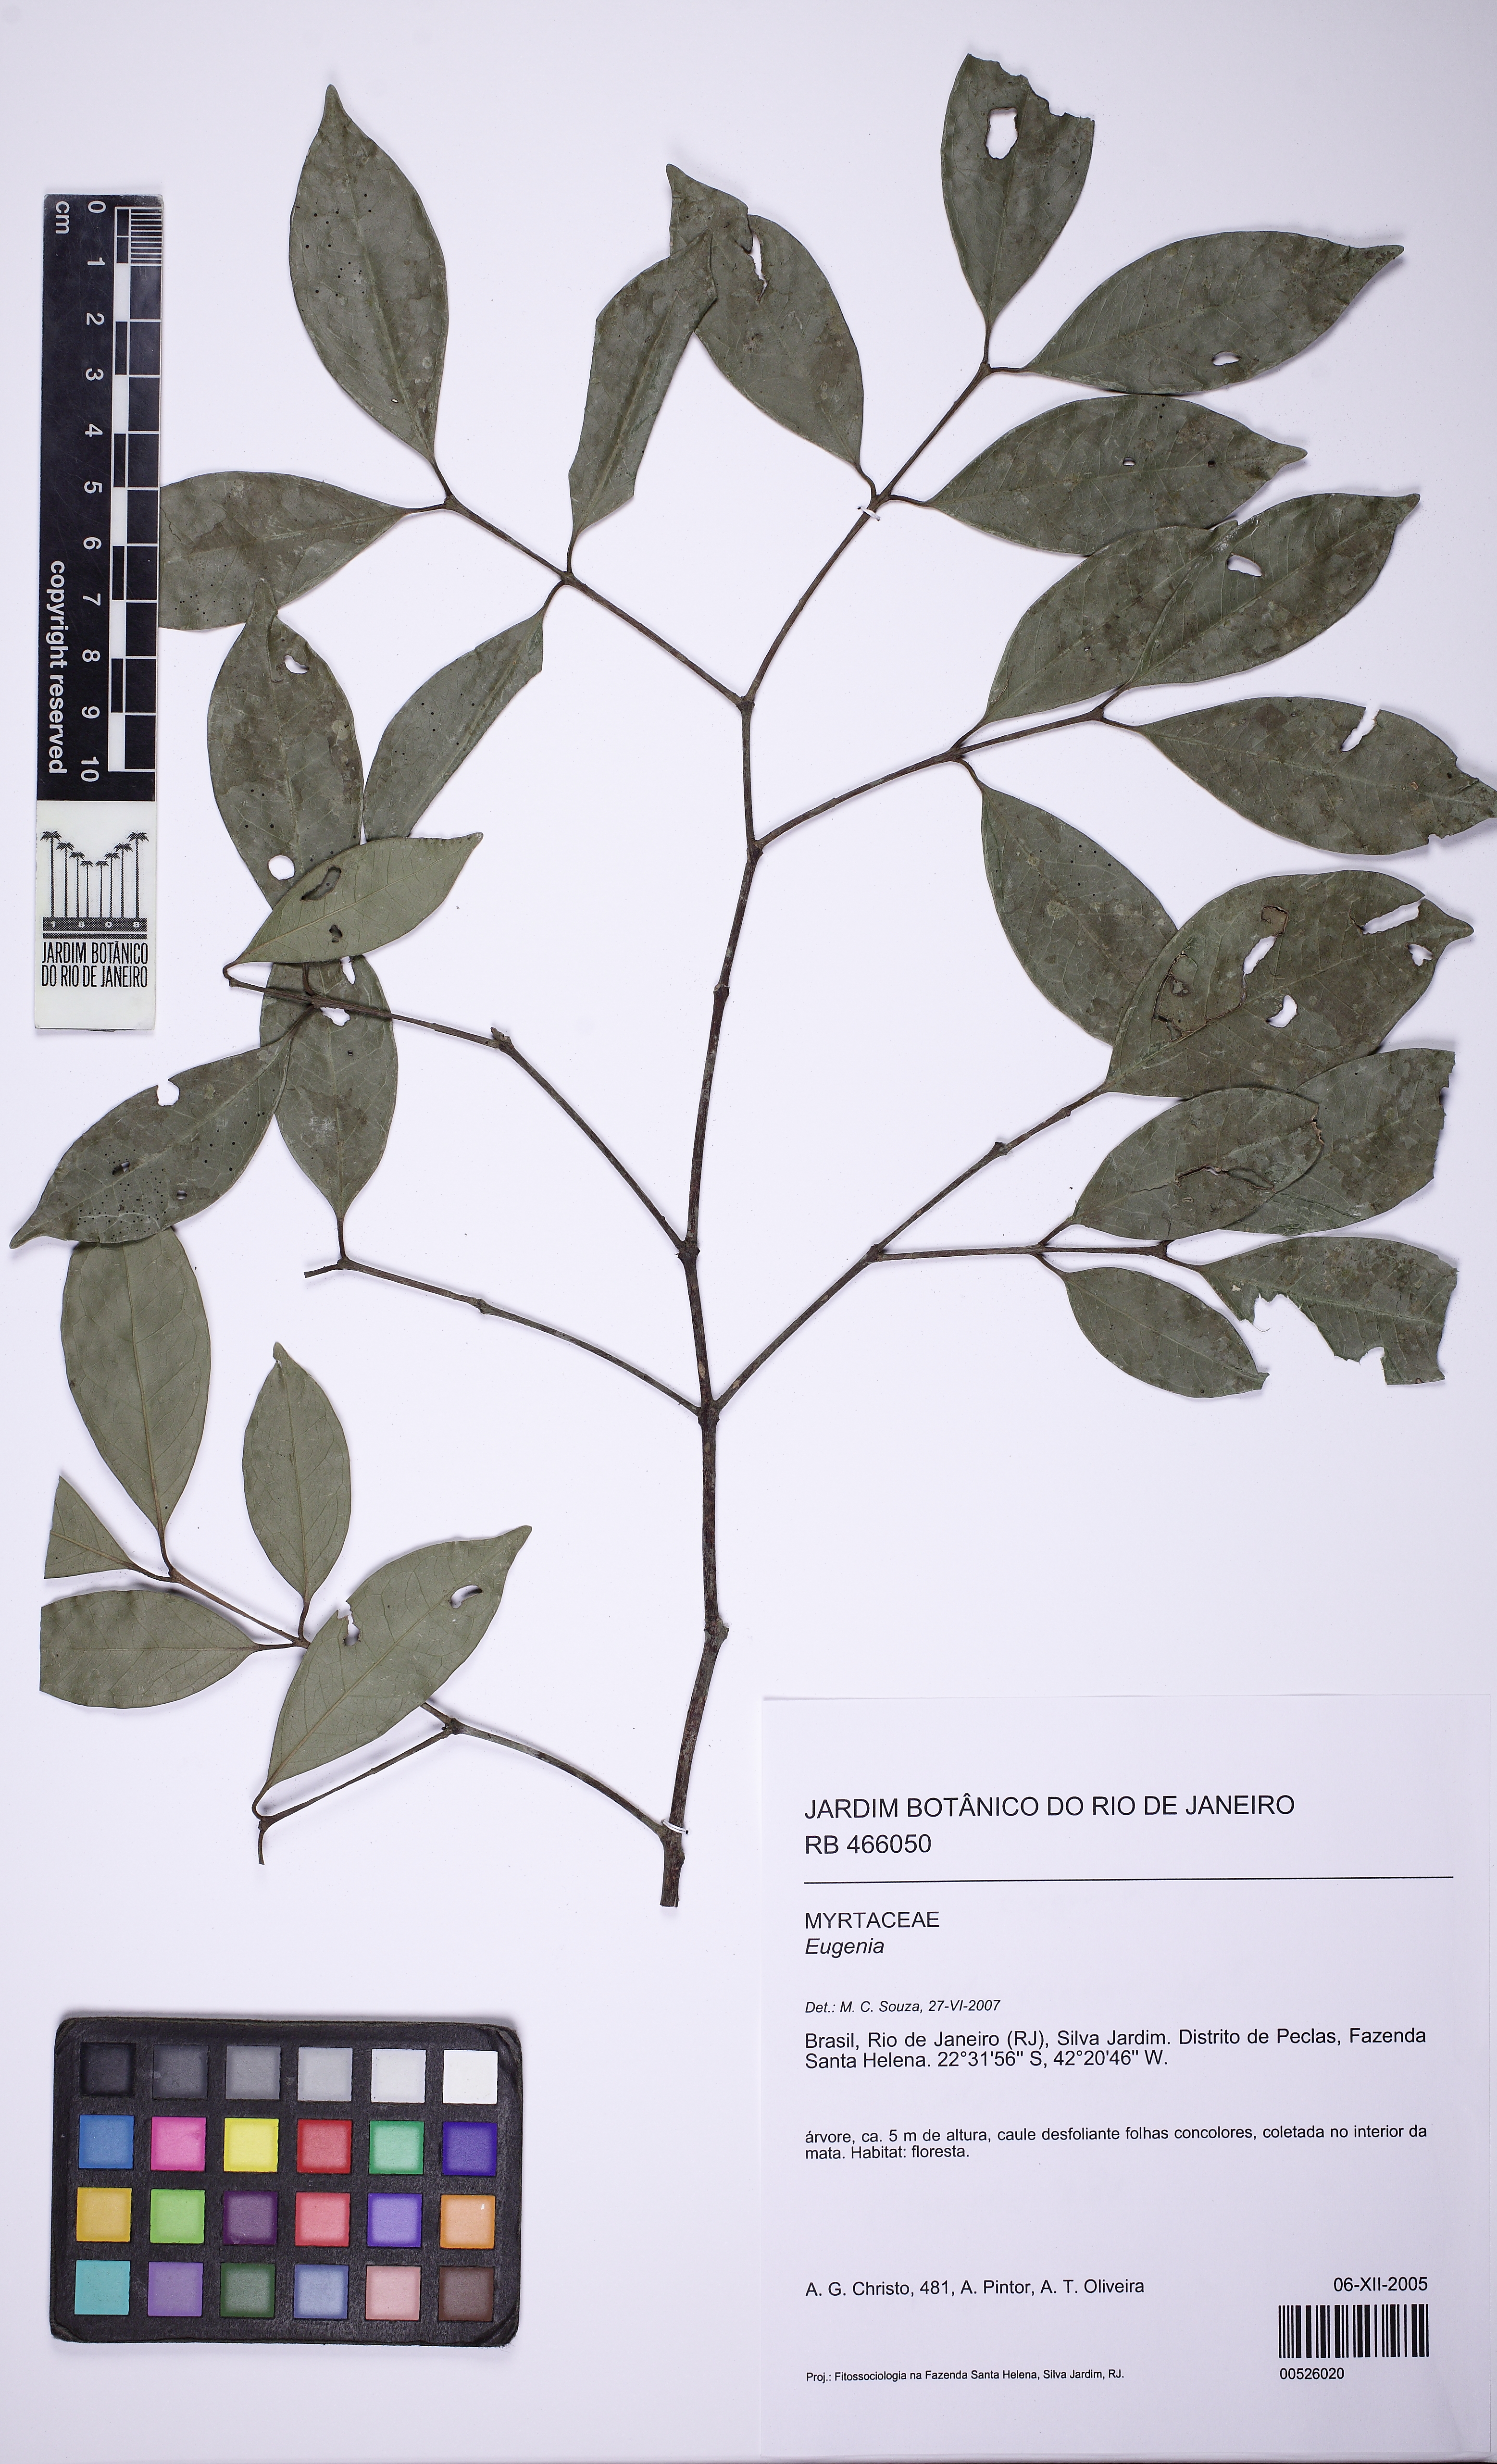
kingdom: Plantae
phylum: Tracheophyta
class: Magnoliopsida
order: Myrtales
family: Myrtaceae
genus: Eugenia
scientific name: Eugenia
